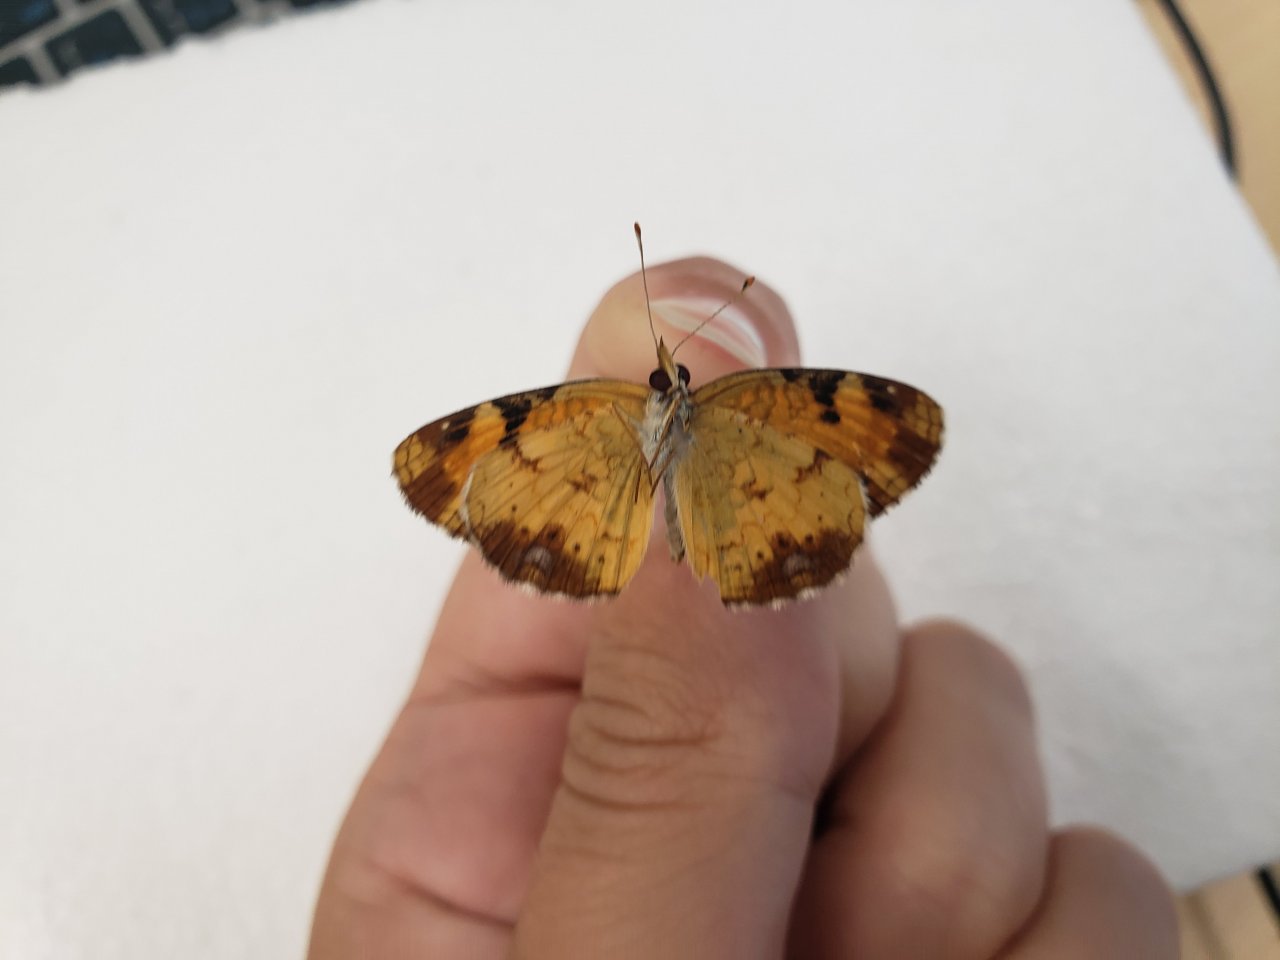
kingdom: Animalia
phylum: Arthropoda
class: Insecta
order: Lepidoptera
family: Nymphalidae
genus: Phyciodes
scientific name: Phyciodes tharos
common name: Northern Crescent
